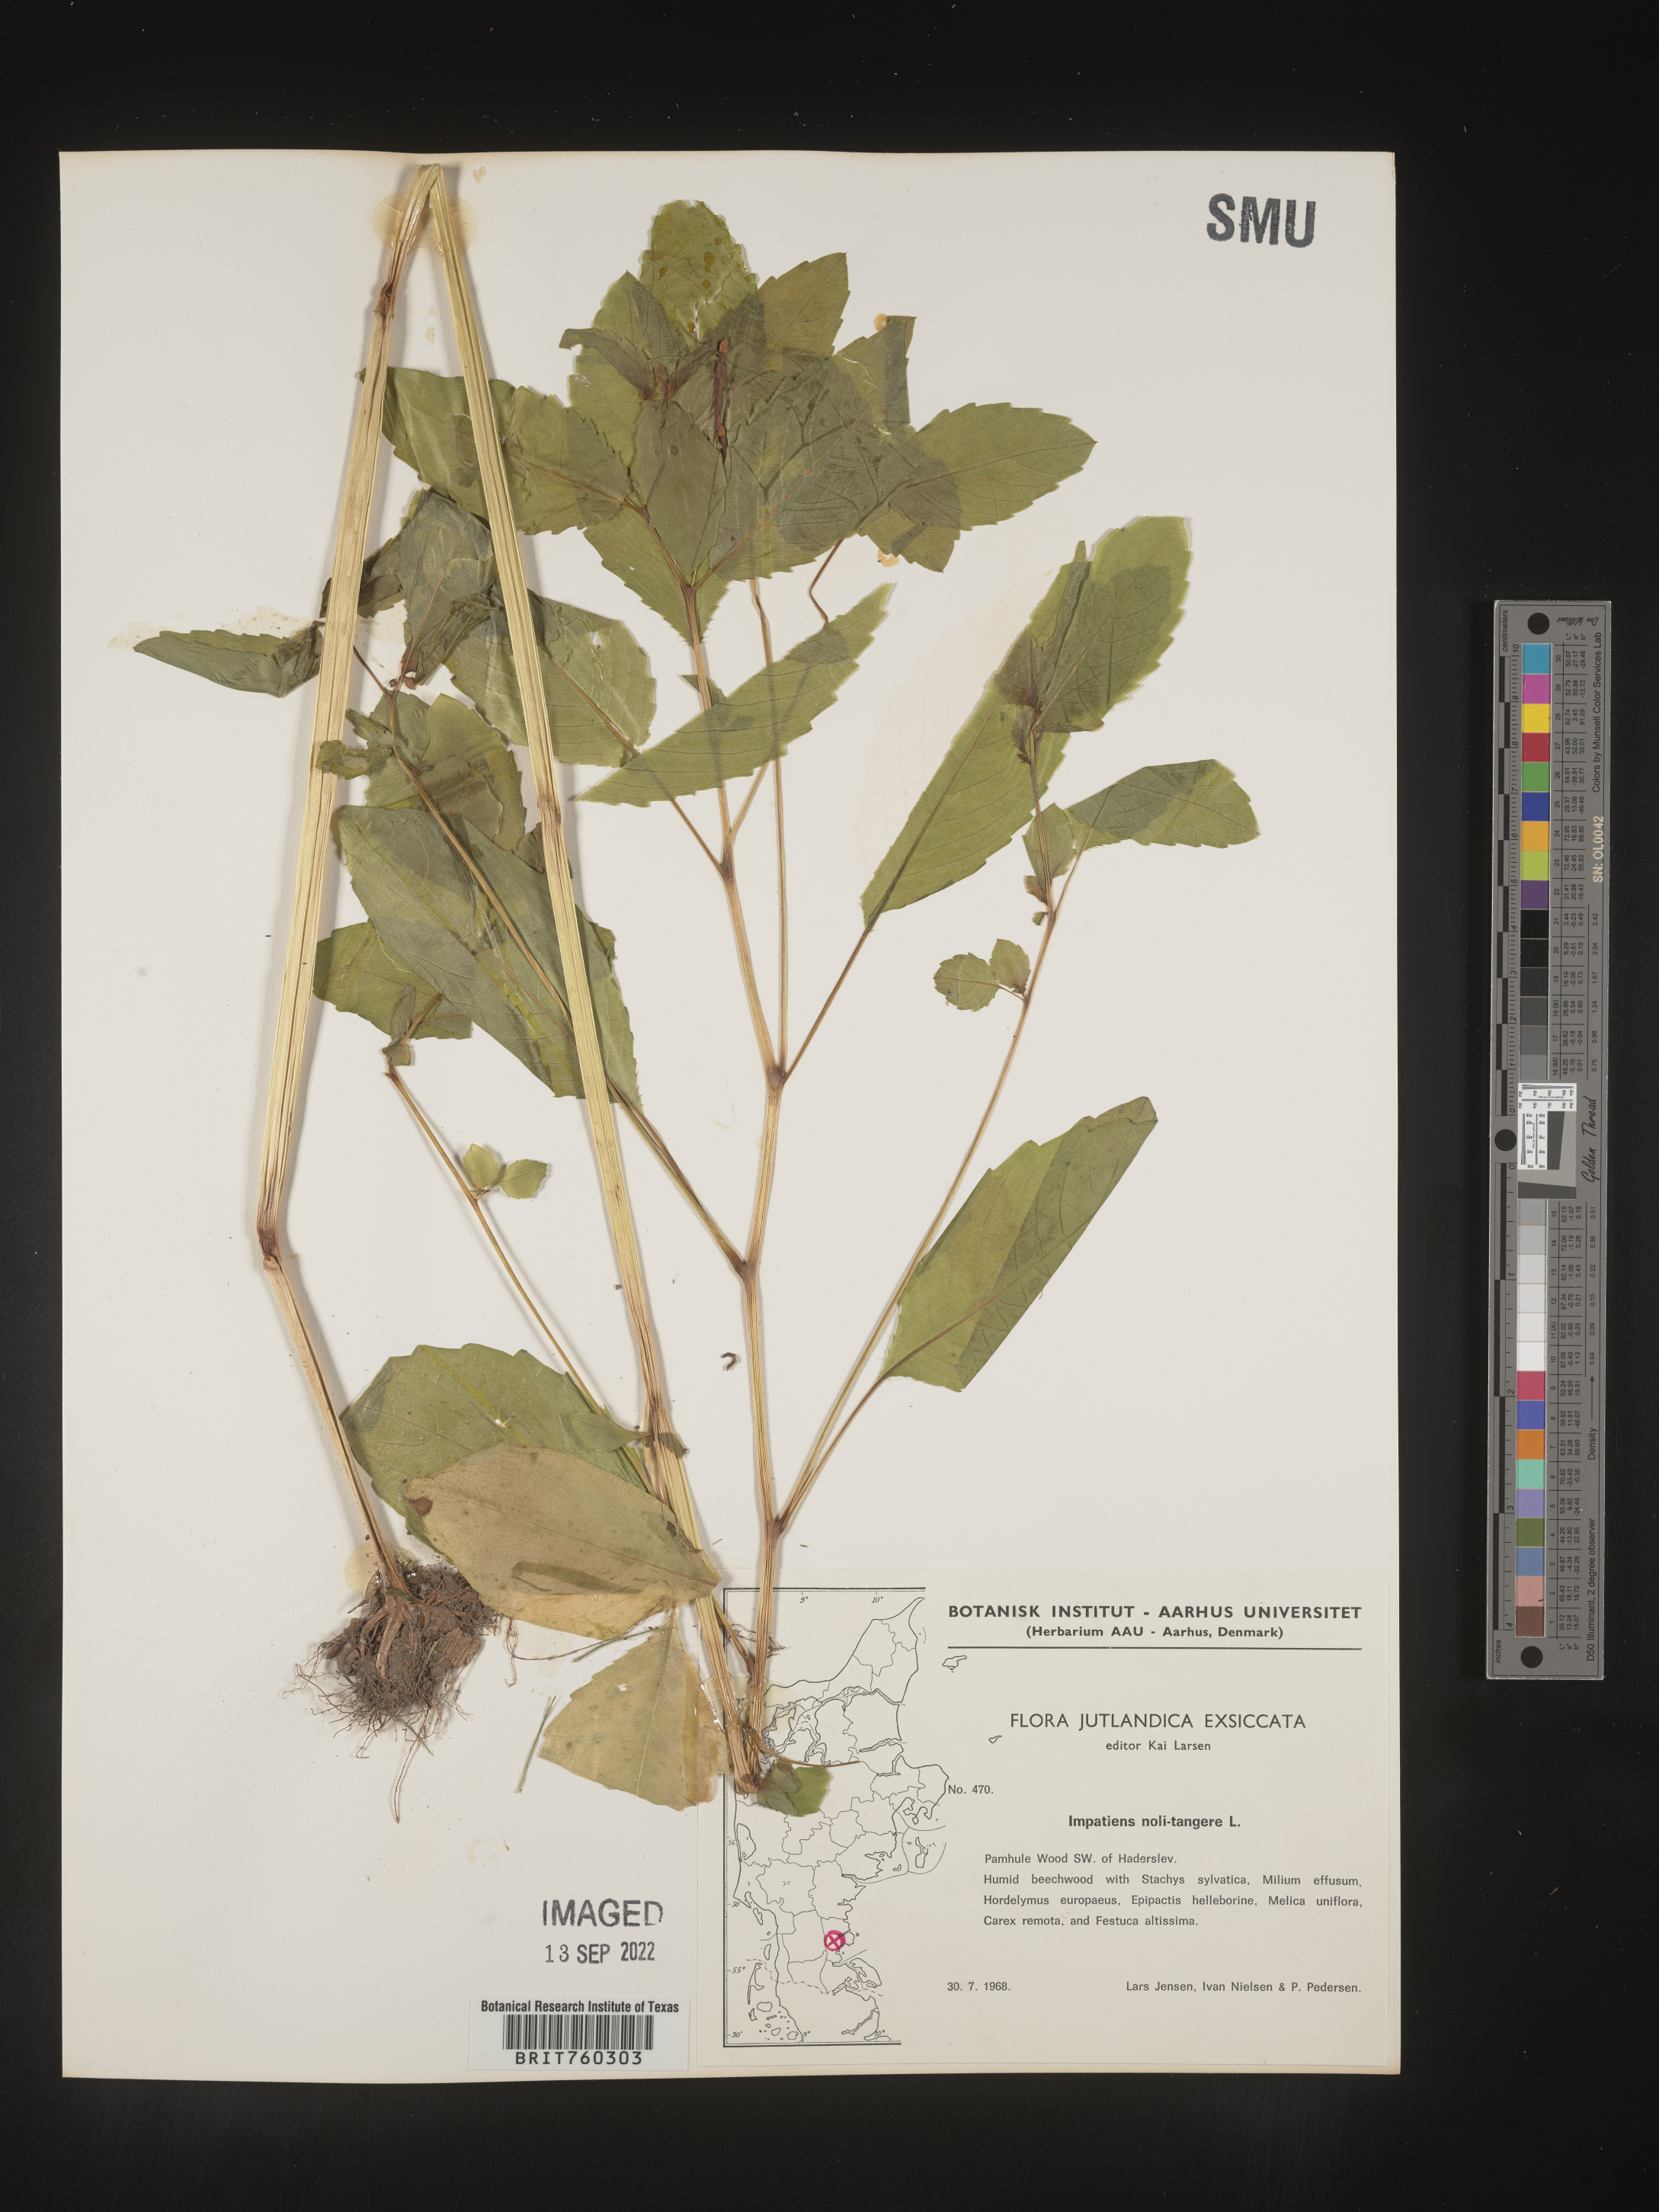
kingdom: Plantae
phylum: Tracheophyta
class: Magnoliopsida
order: Ericales
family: Balsaminaceae
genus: Impatiens
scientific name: Impatiens
